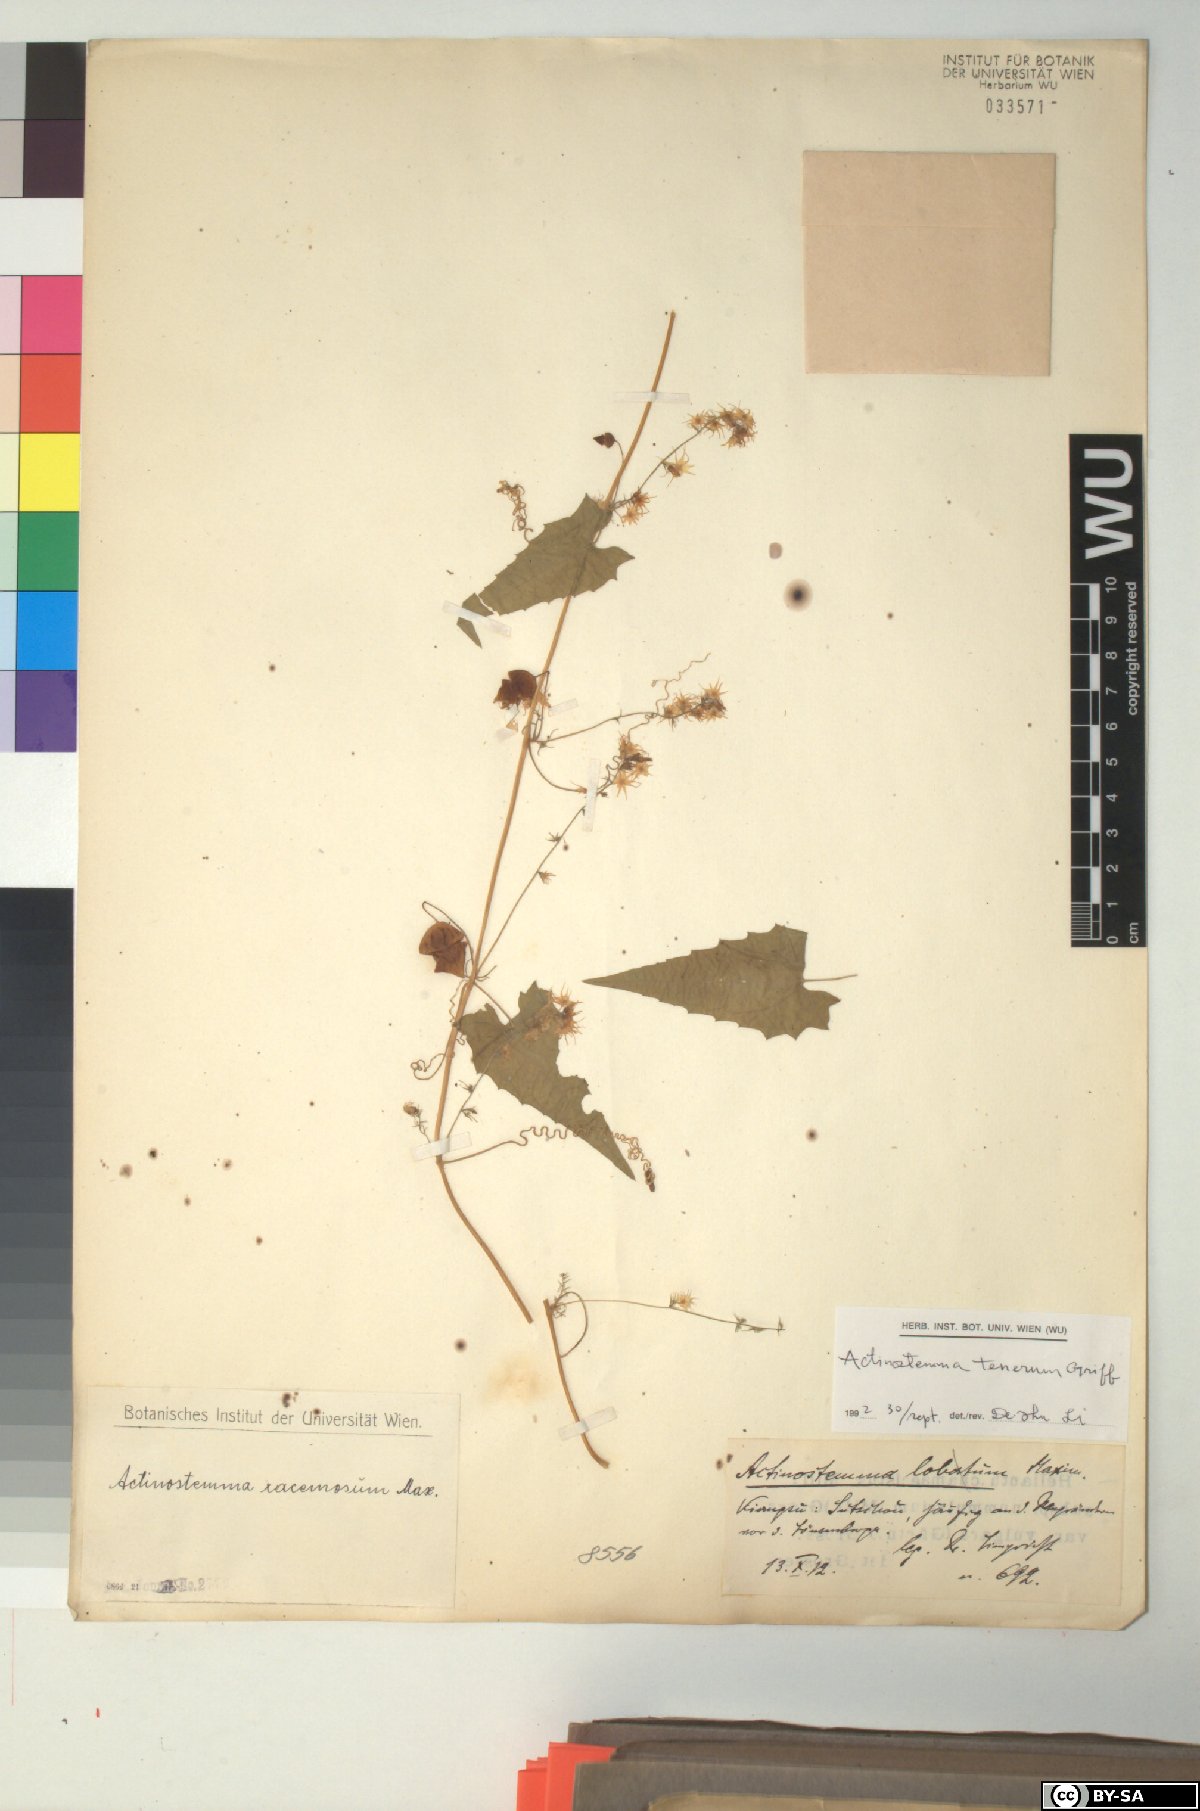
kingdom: Plantae
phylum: Tracheophyta
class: Magnoliopsida
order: Cucurbitales
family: Cucurbitaceae
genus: Actinostemma
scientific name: Actinostemma tenerum
